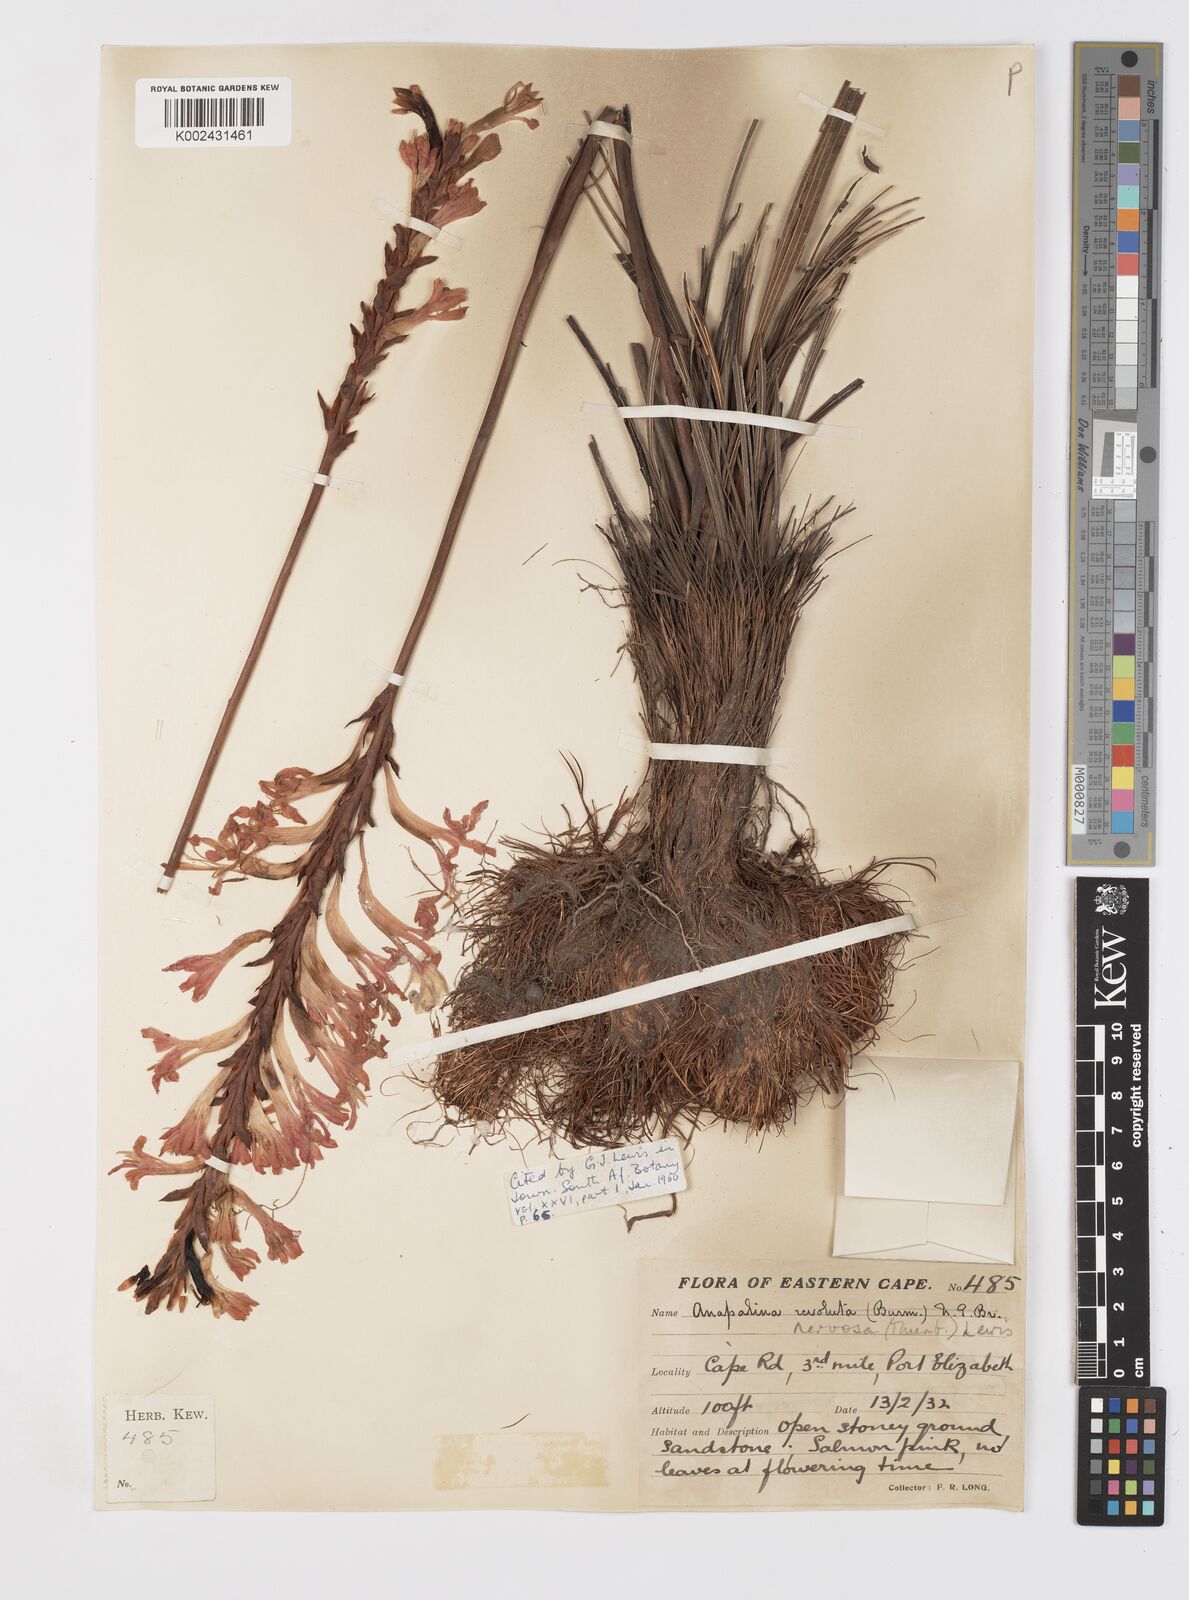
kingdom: Plantae
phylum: Tracheophyta
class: Liliopsida
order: Asparagales
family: Iridaceae
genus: Tritoniopsis
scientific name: Tritoniopsis nervosa
